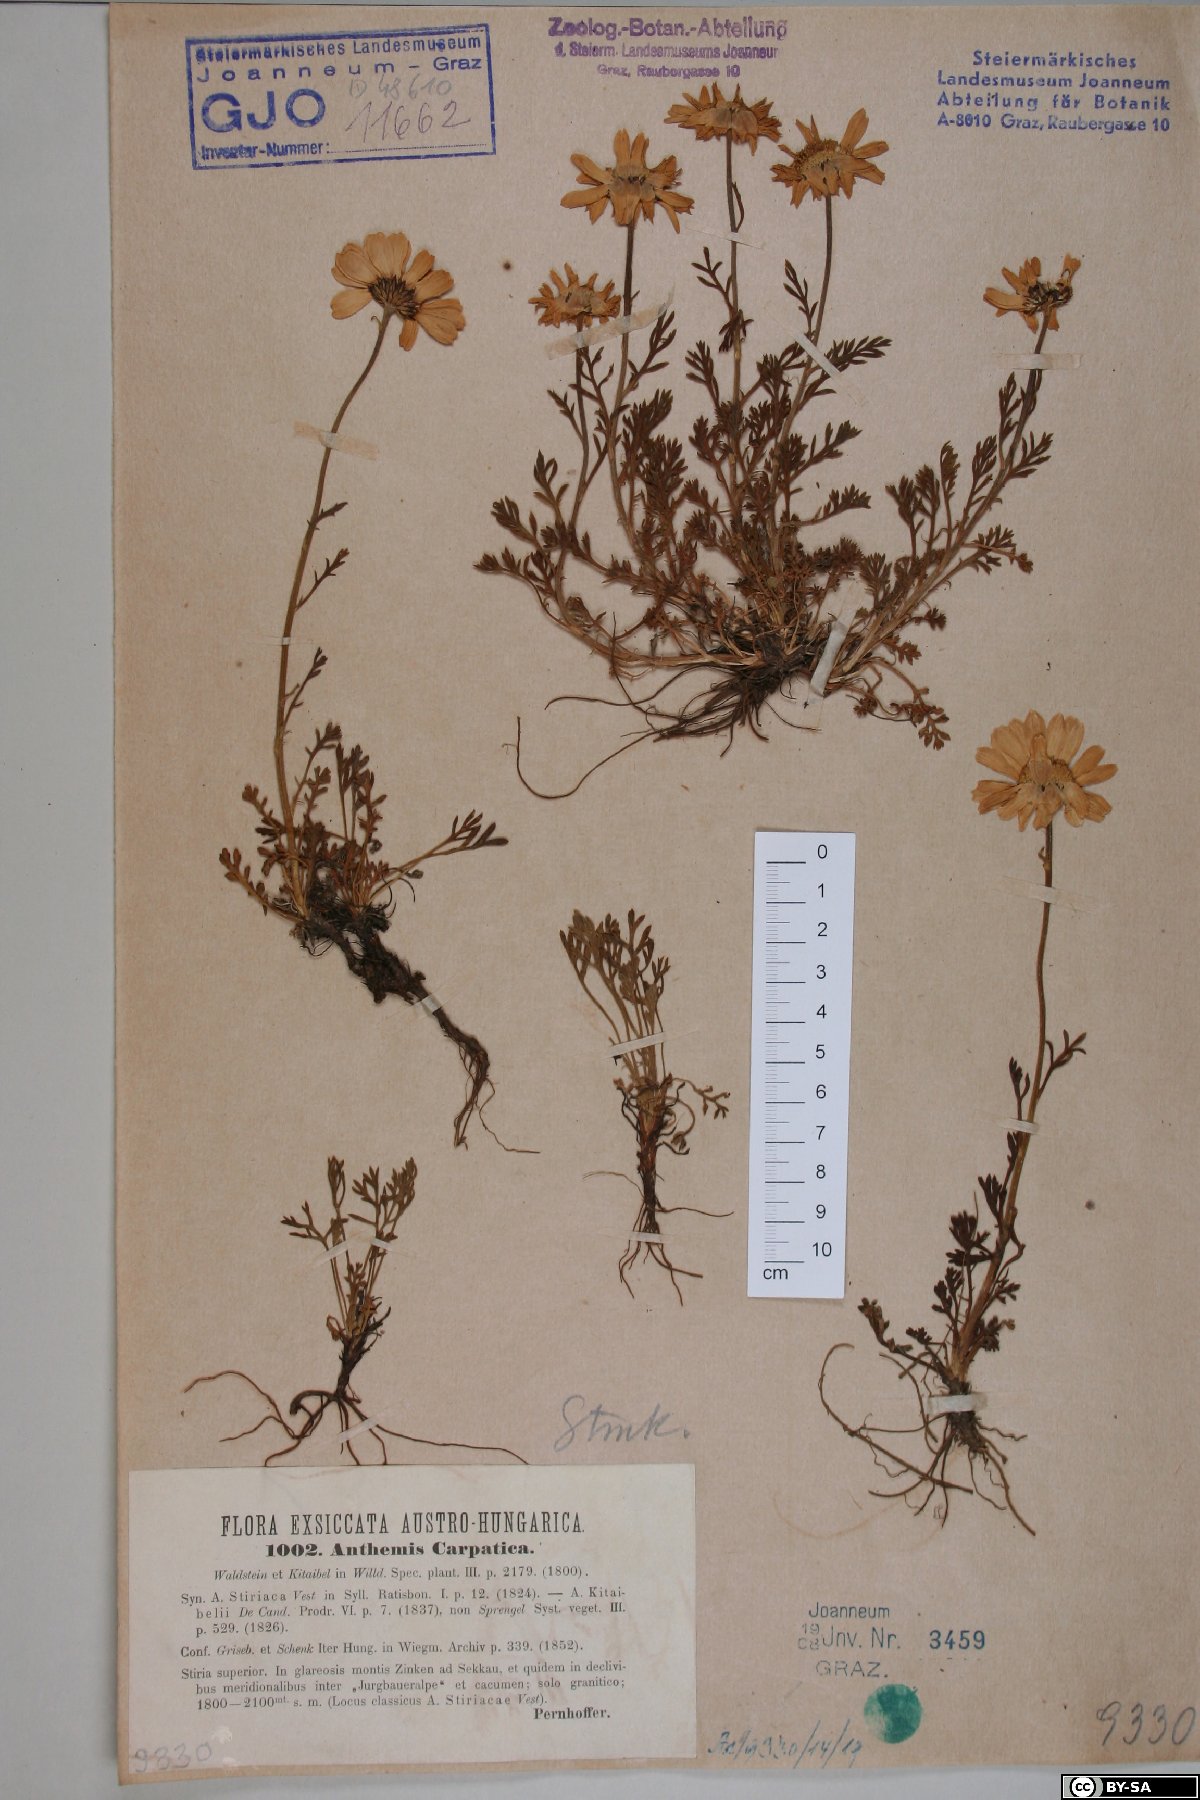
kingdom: Plantae
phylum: Tracheophyta
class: Magnoliopsida
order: Asterales
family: Asteraceae
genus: Anthemis
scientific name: Anthemis cretica
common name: Mountain dog-daisy
